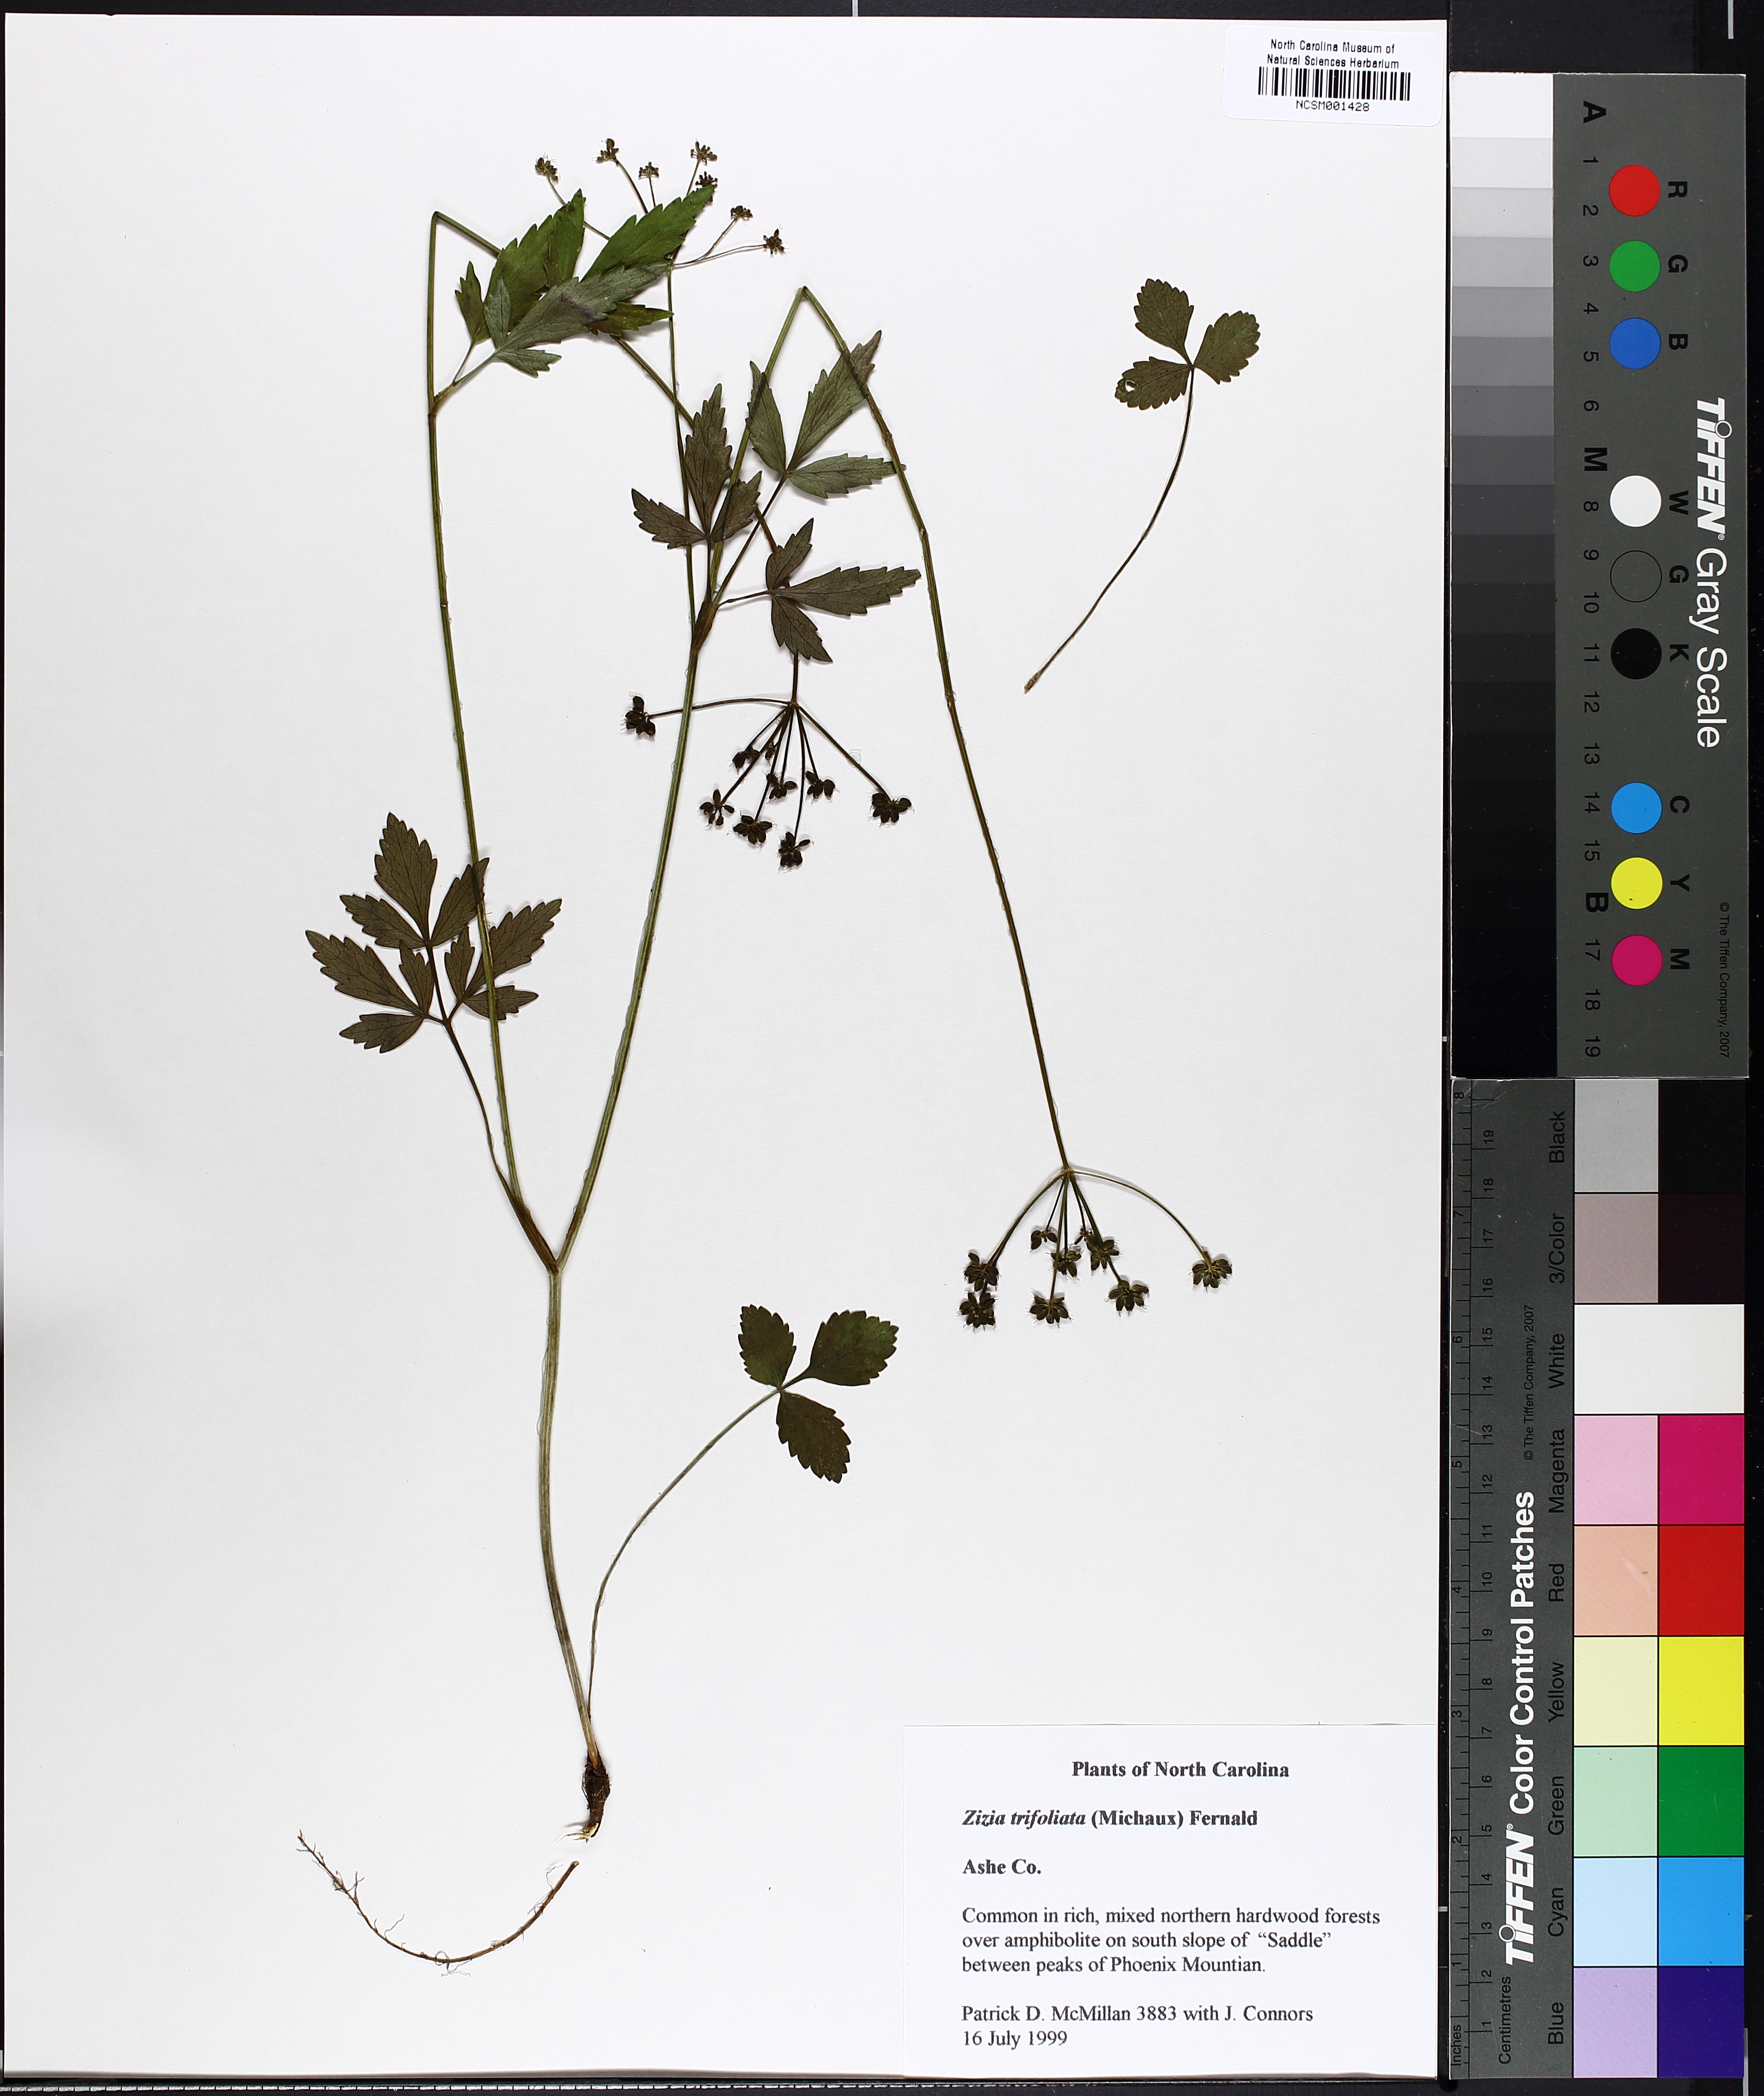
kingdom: Plantae
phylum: Tracheophyta
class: Magnoliopsida
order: Apiales
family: Apiaceae
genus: Zizia
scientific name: Zizia trifoliata
